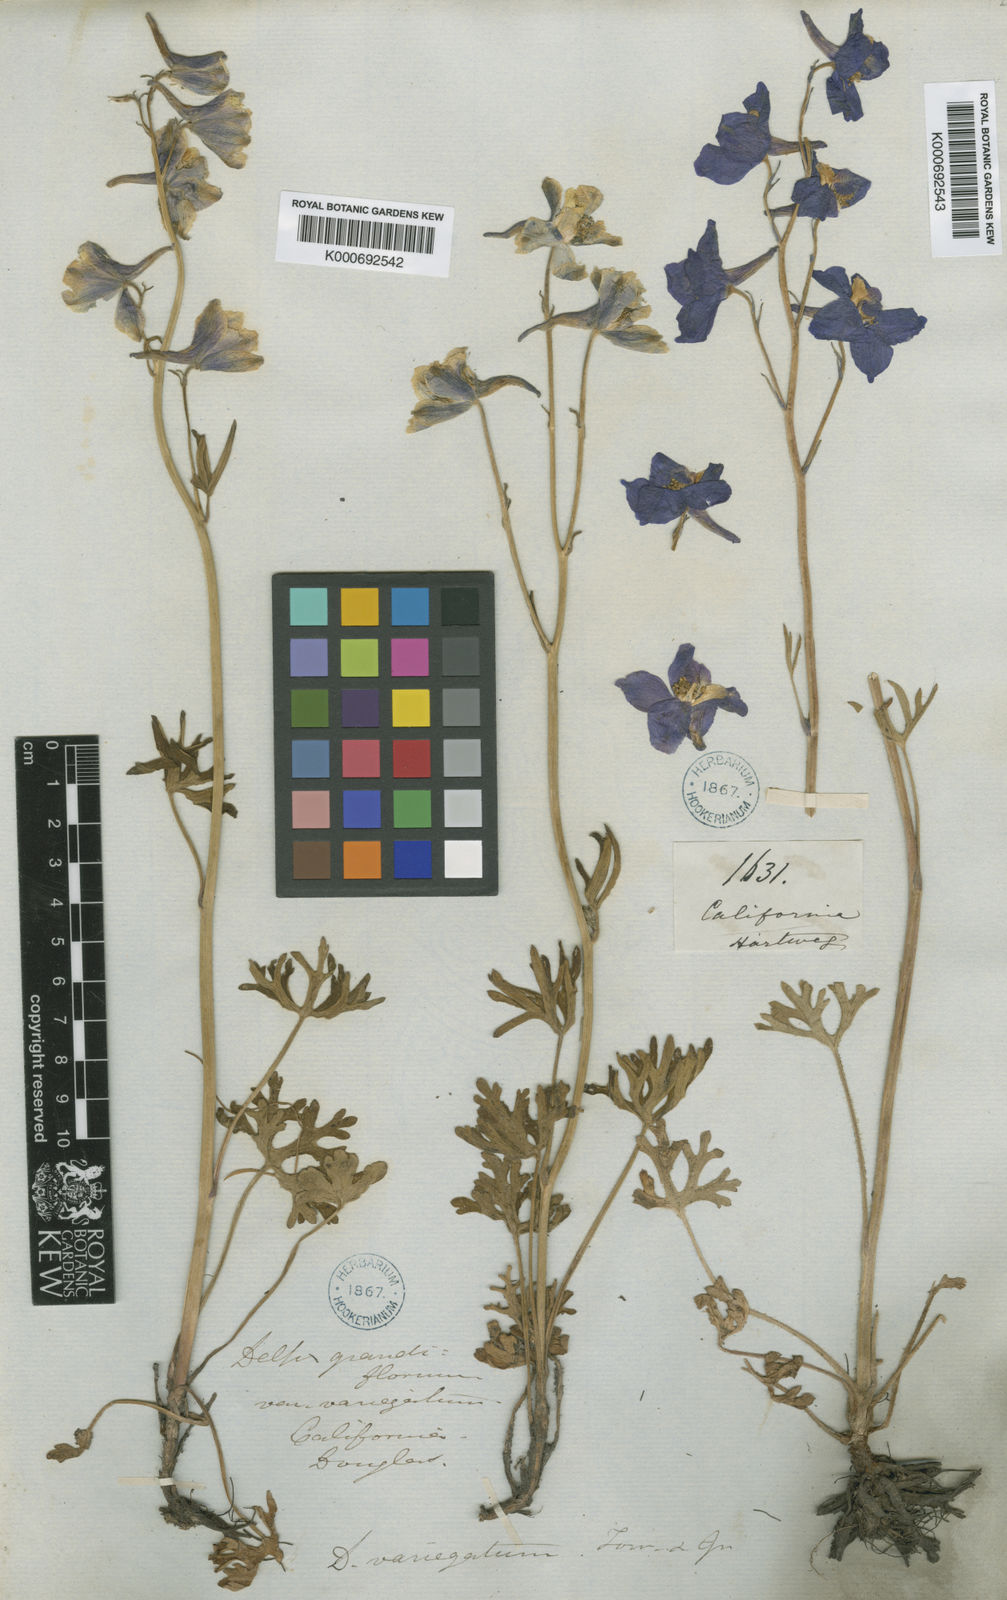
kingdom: Plantae
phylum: Tracheophyta
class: Magnoliopsida
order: Ranunculales
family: Ranunculaceae
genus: Delphinium
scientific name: Delphinium variegatum
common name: Royal larkspur
